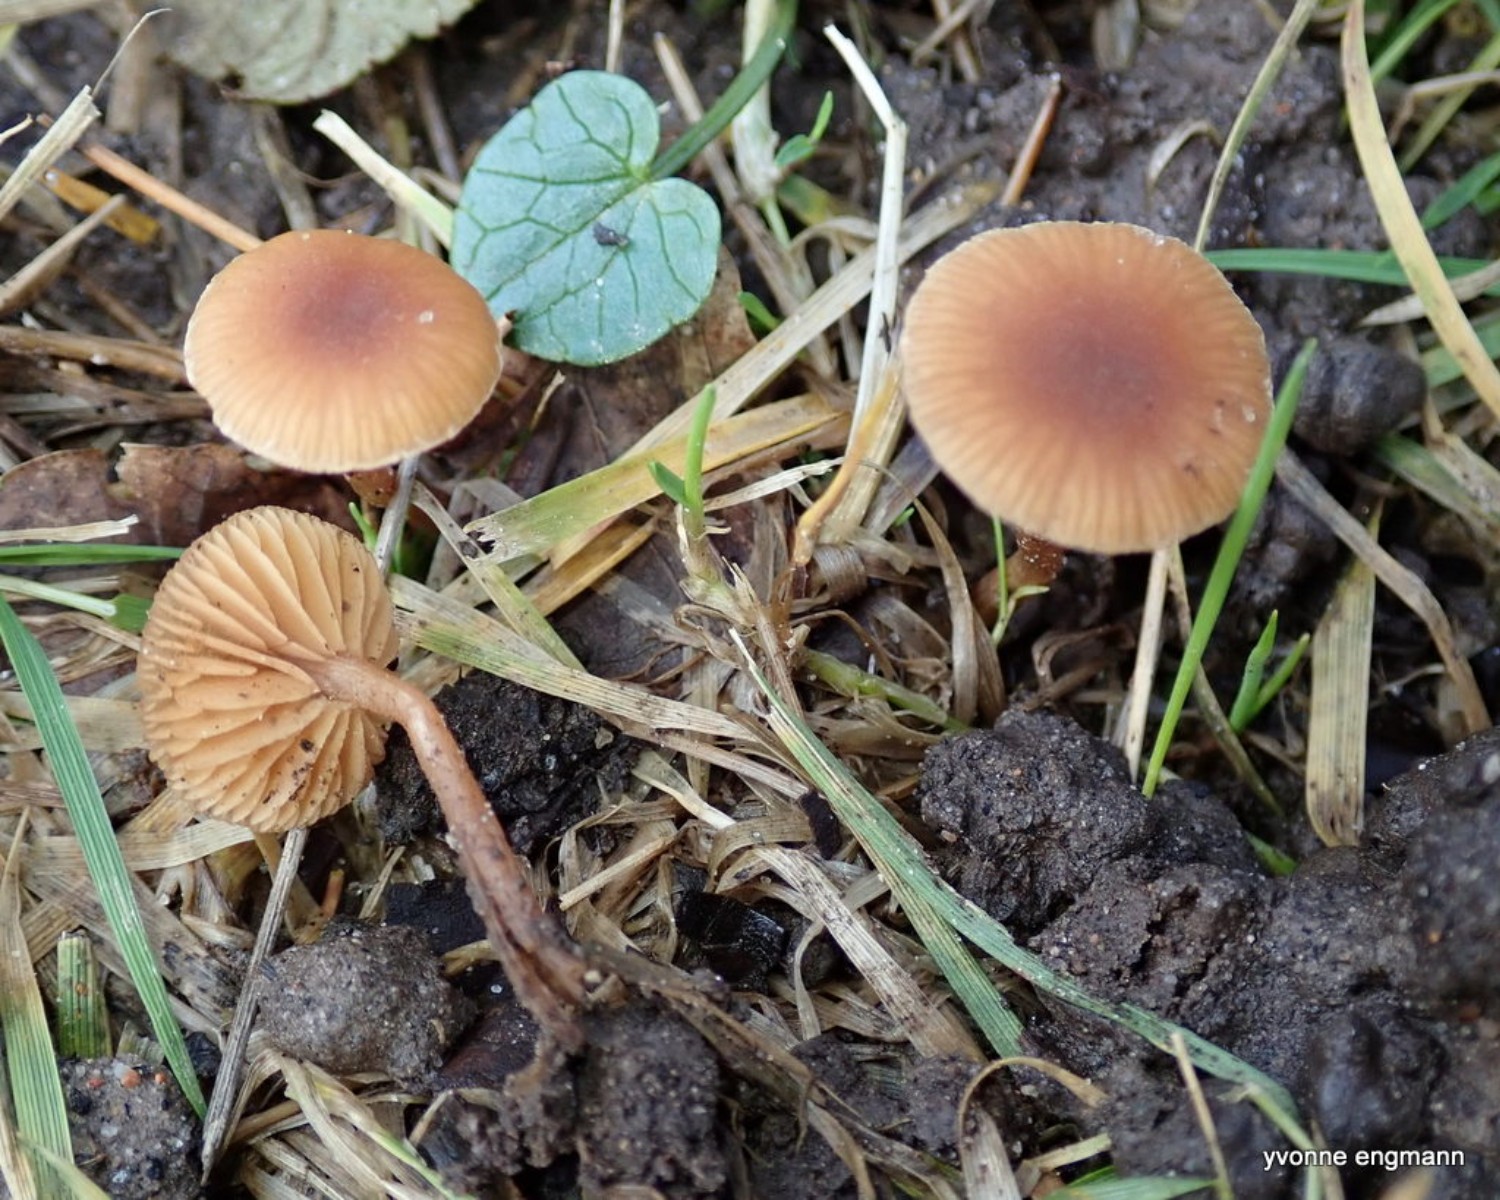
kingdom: Fungi
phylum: Basidiomycota
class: Agaricomycetes
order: Agaricales
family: Tubariaceae
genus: Tubaria
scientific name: Tubaria furfuracea
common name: kliddet fnughat
